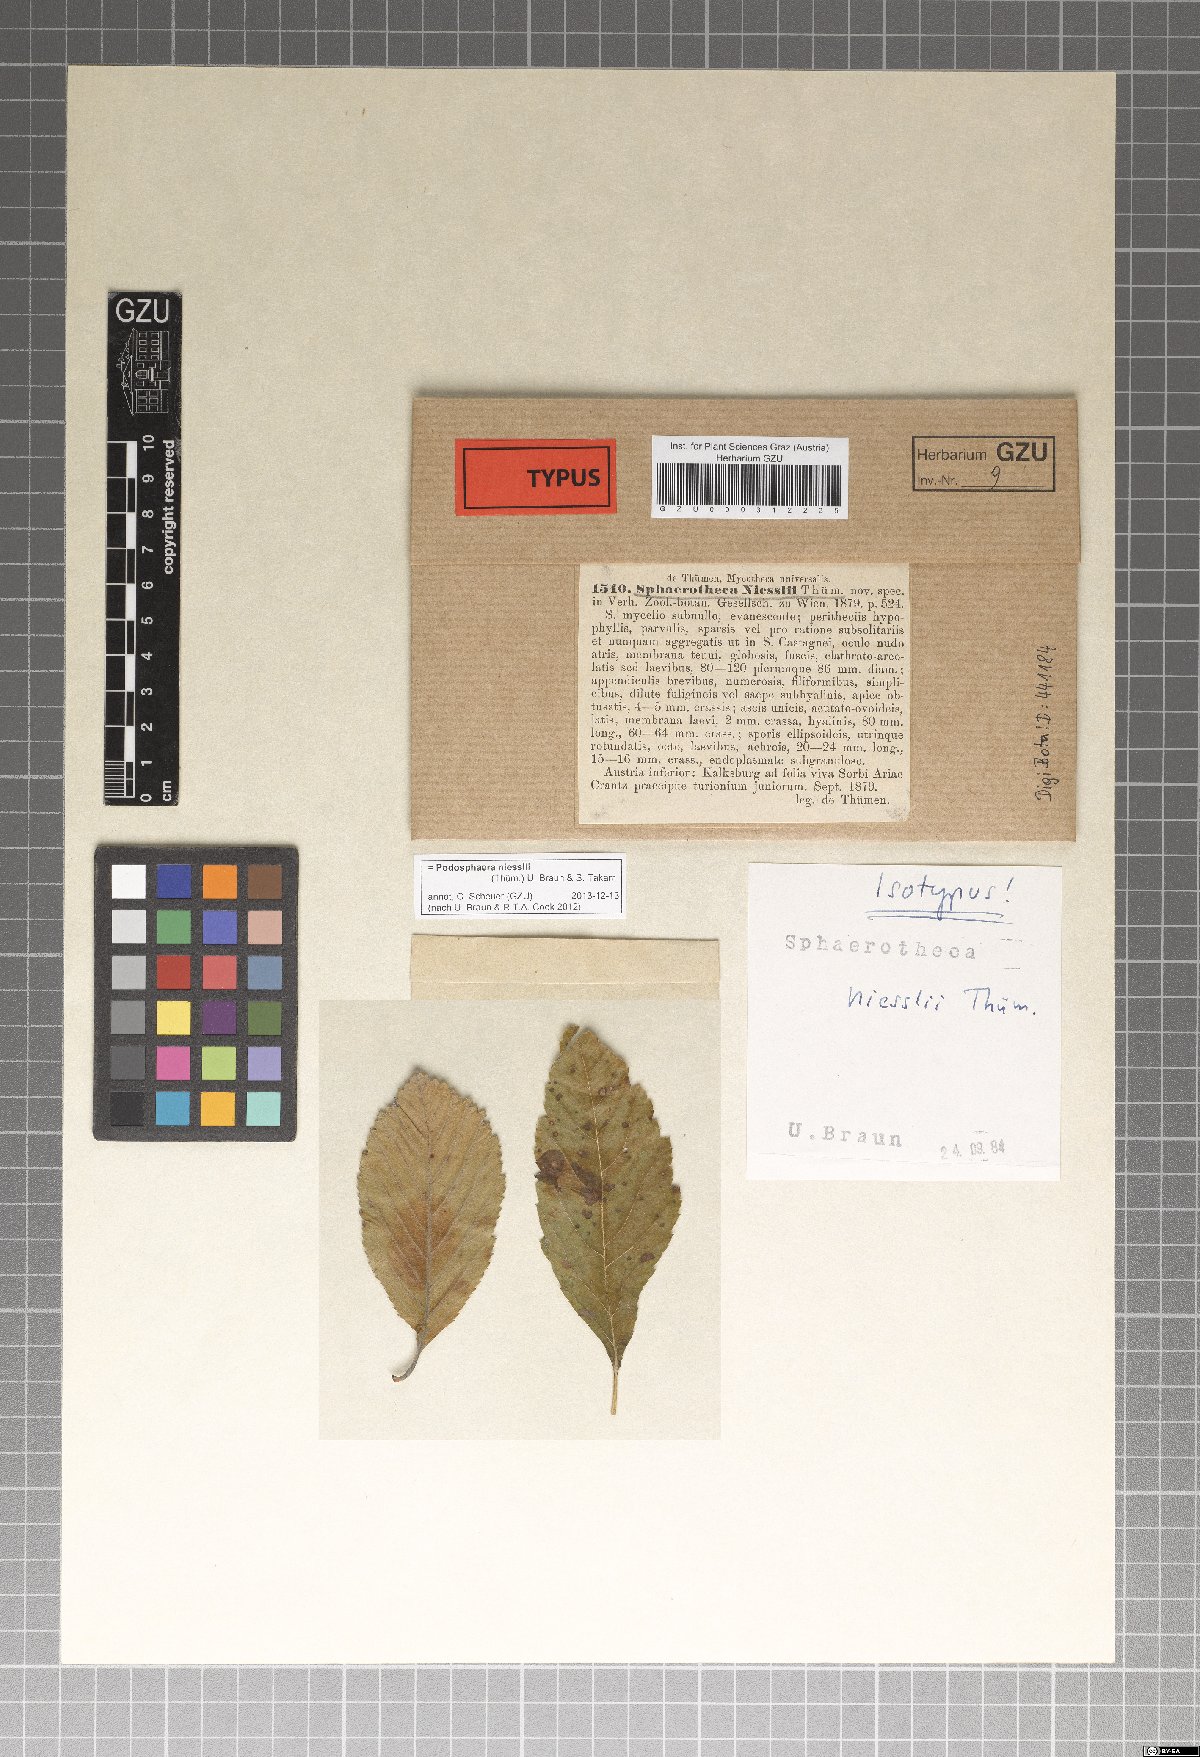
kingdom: Fungi
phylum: Ascomycota
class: Leotiomycetes
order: Helotiales
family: Erysiphaceae
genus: Podosphaera
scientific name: Podosphaera niesslii
